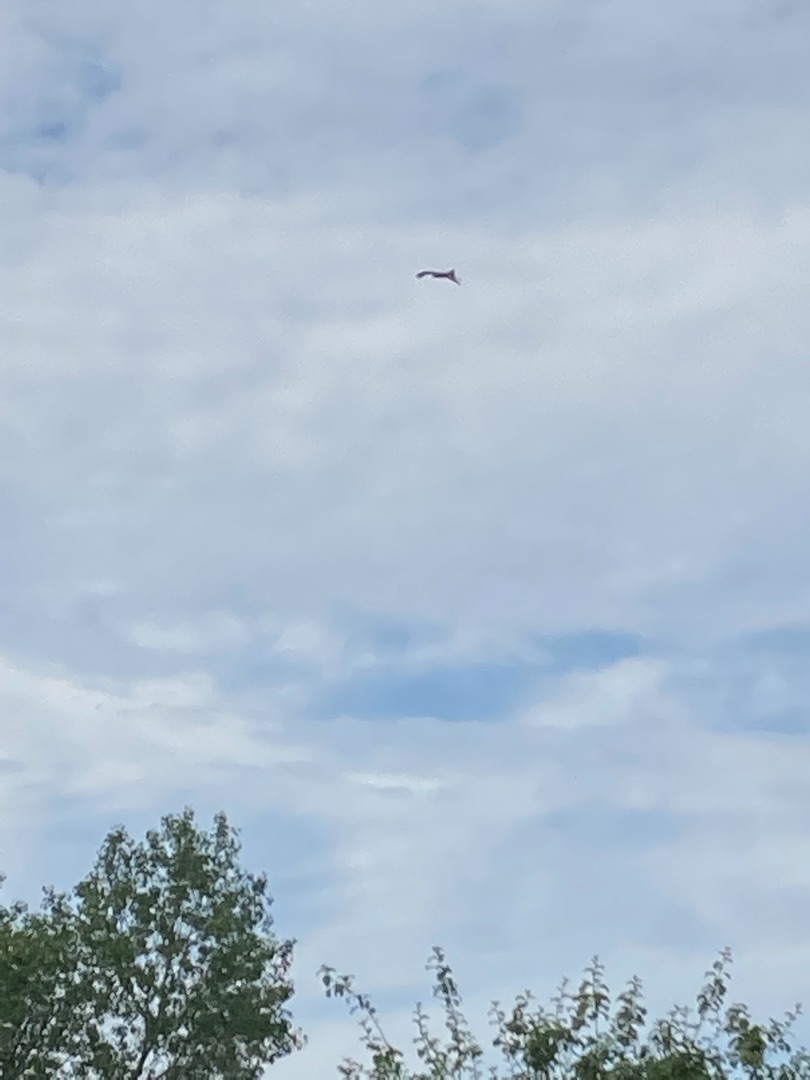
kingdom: Animalia
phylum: Chordata
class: Aves
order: Accipitriformes
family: Accipitridae
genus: Milvus
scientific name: Milvus milvus
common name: Rød glente
